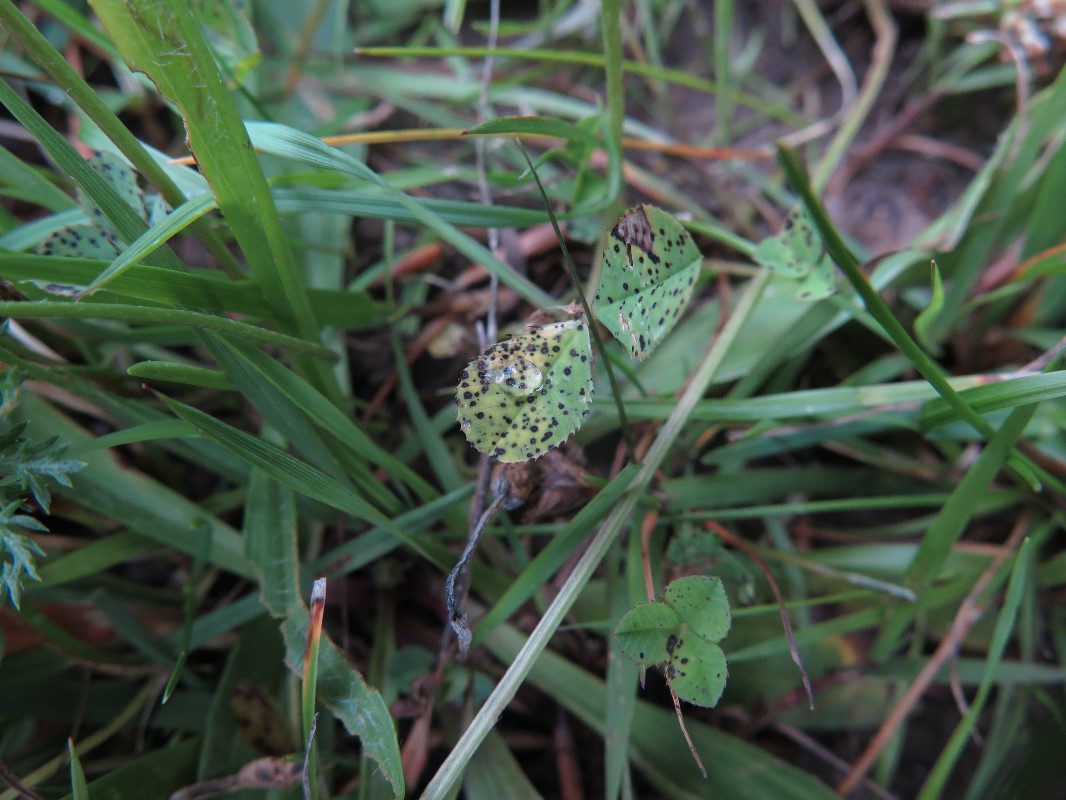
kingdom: Fungi
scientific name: Fungi
